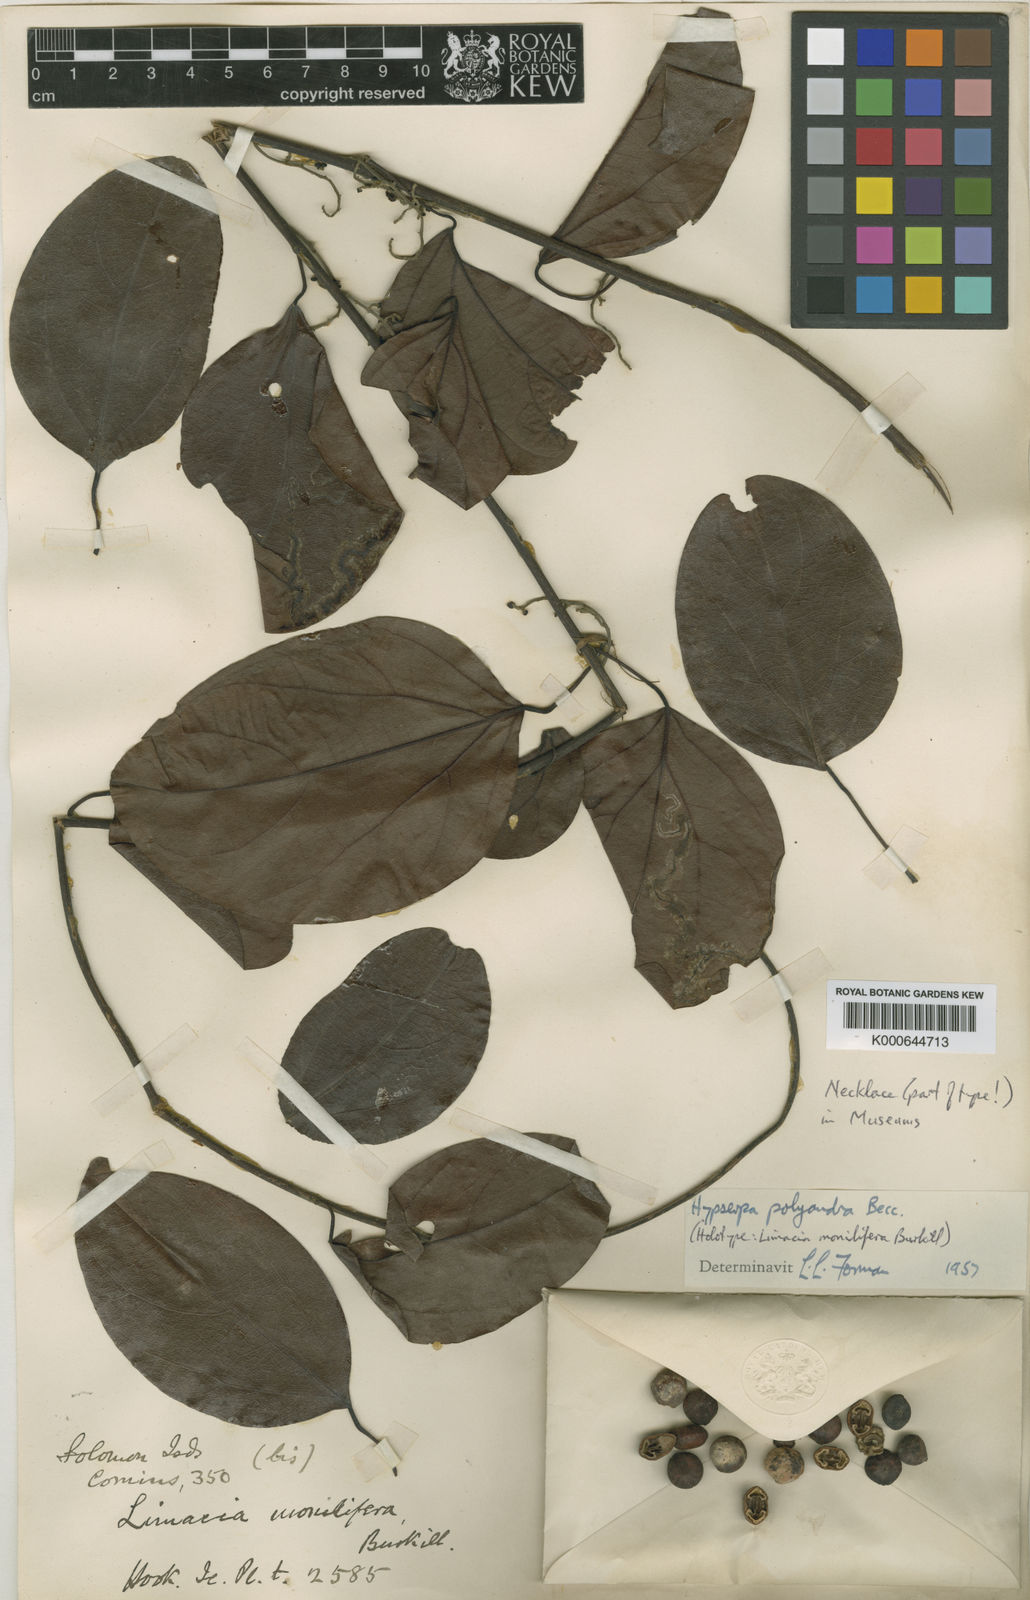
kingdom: Plantae
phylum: Tracheophyta
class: Magnoliopsida
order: Ranunculales
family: Menispermaceae
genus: Hypserpa
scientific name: Hypserpa polyandra
